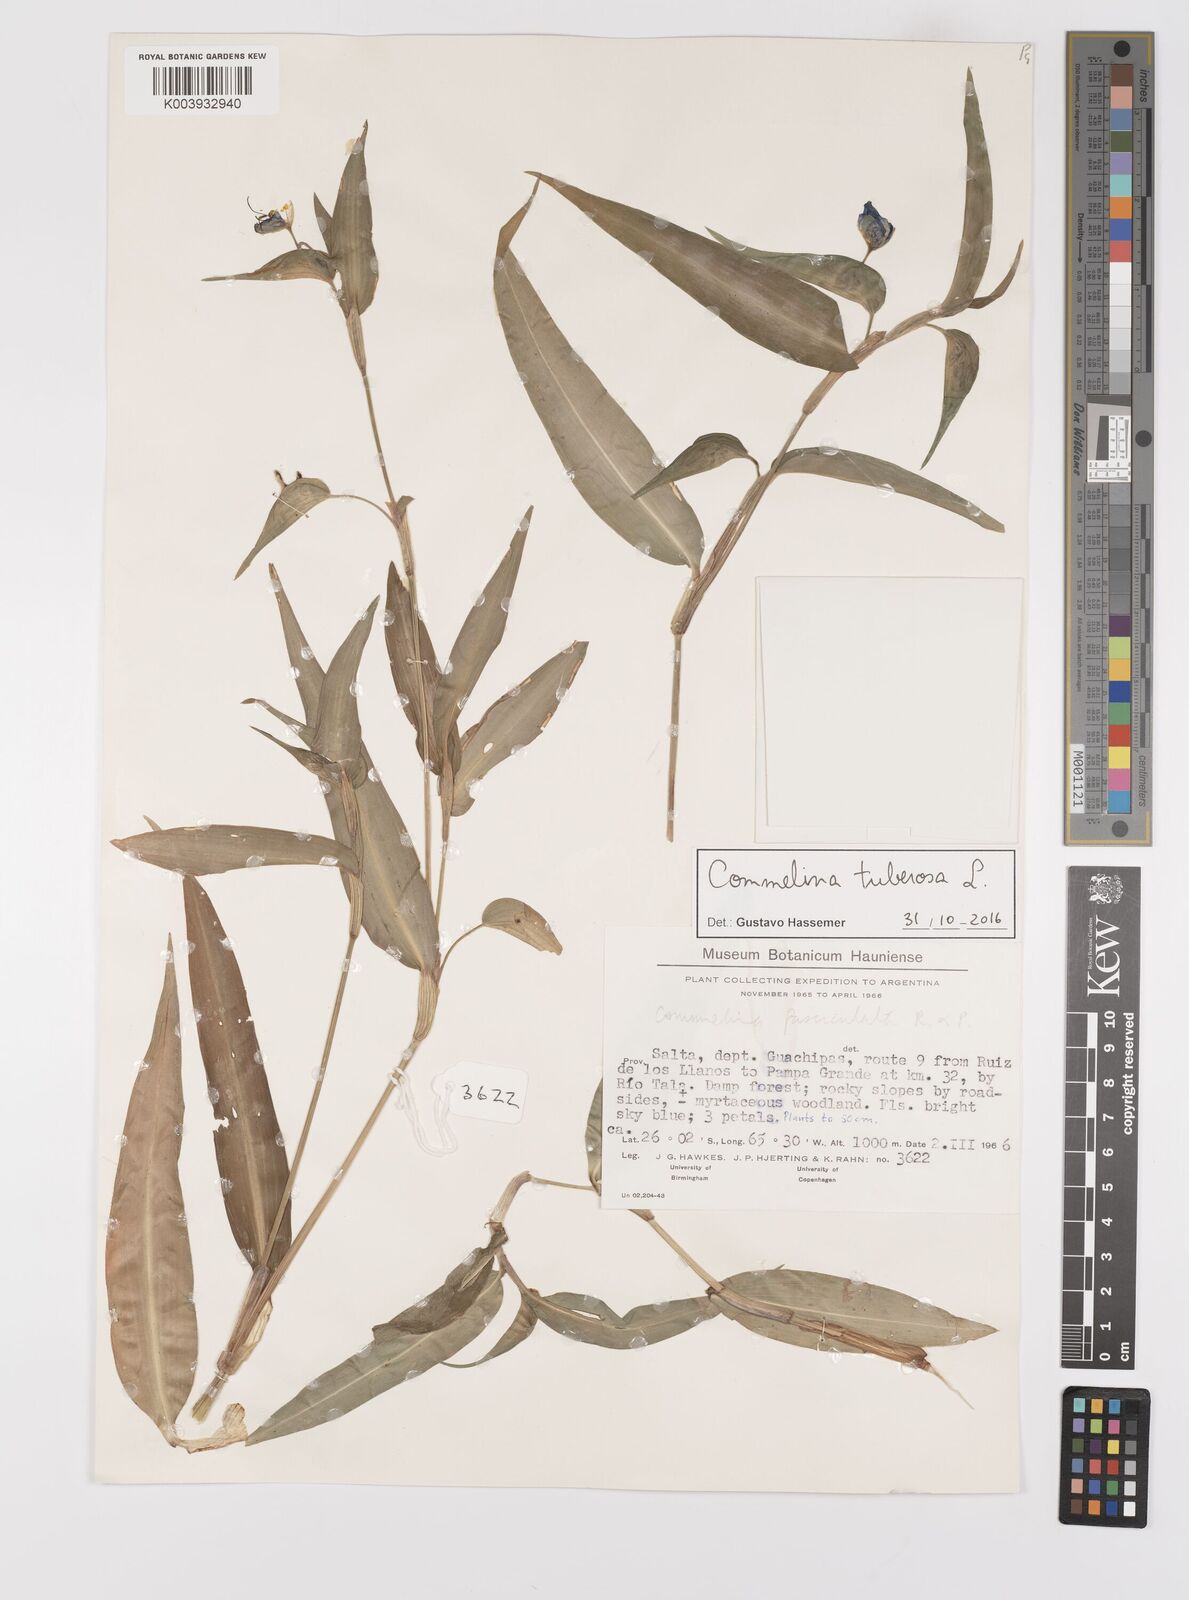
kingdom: Plantae
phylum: Tracheophyta
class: Liliopsida
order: Commelinales
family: Commelinaceae
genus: Commelina
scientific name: Commelina tuberosa
